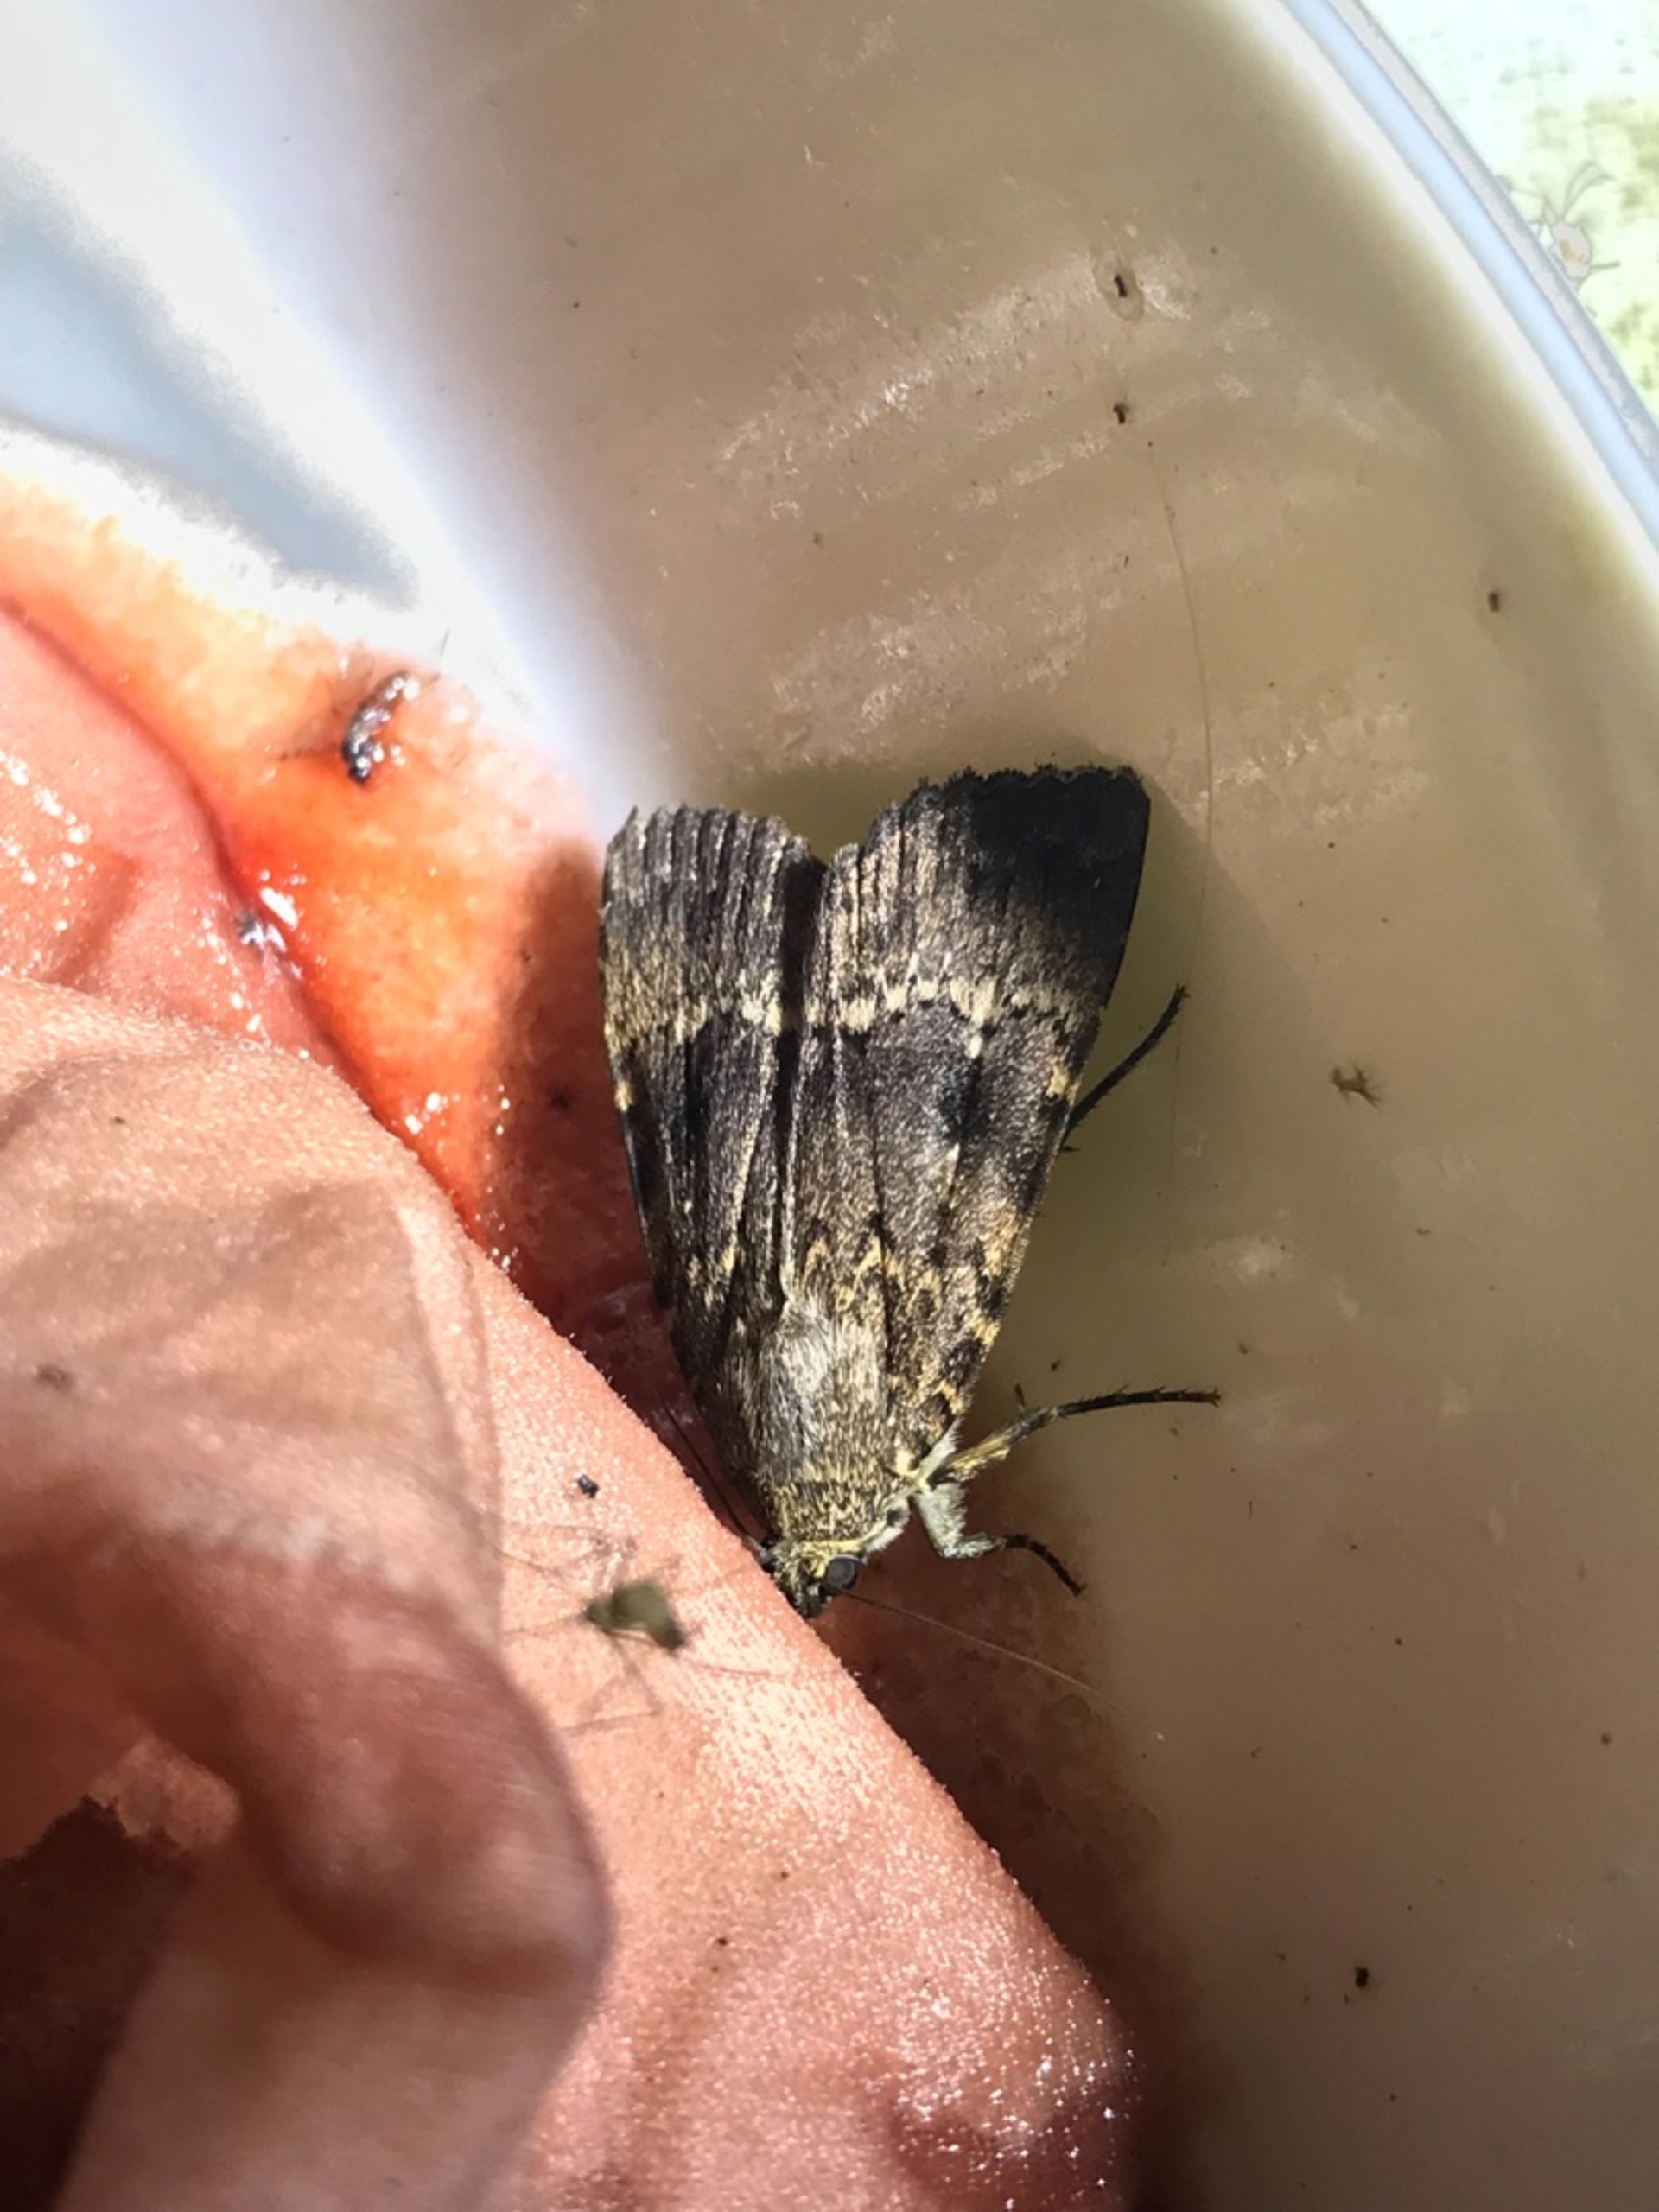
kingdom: Animalia
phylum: Arthropoda
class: Insecta
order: Lepidoptera
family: Noctuidae
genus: Amphipyra
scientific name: Amphipyra pyramidea
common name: Pyramideugle
